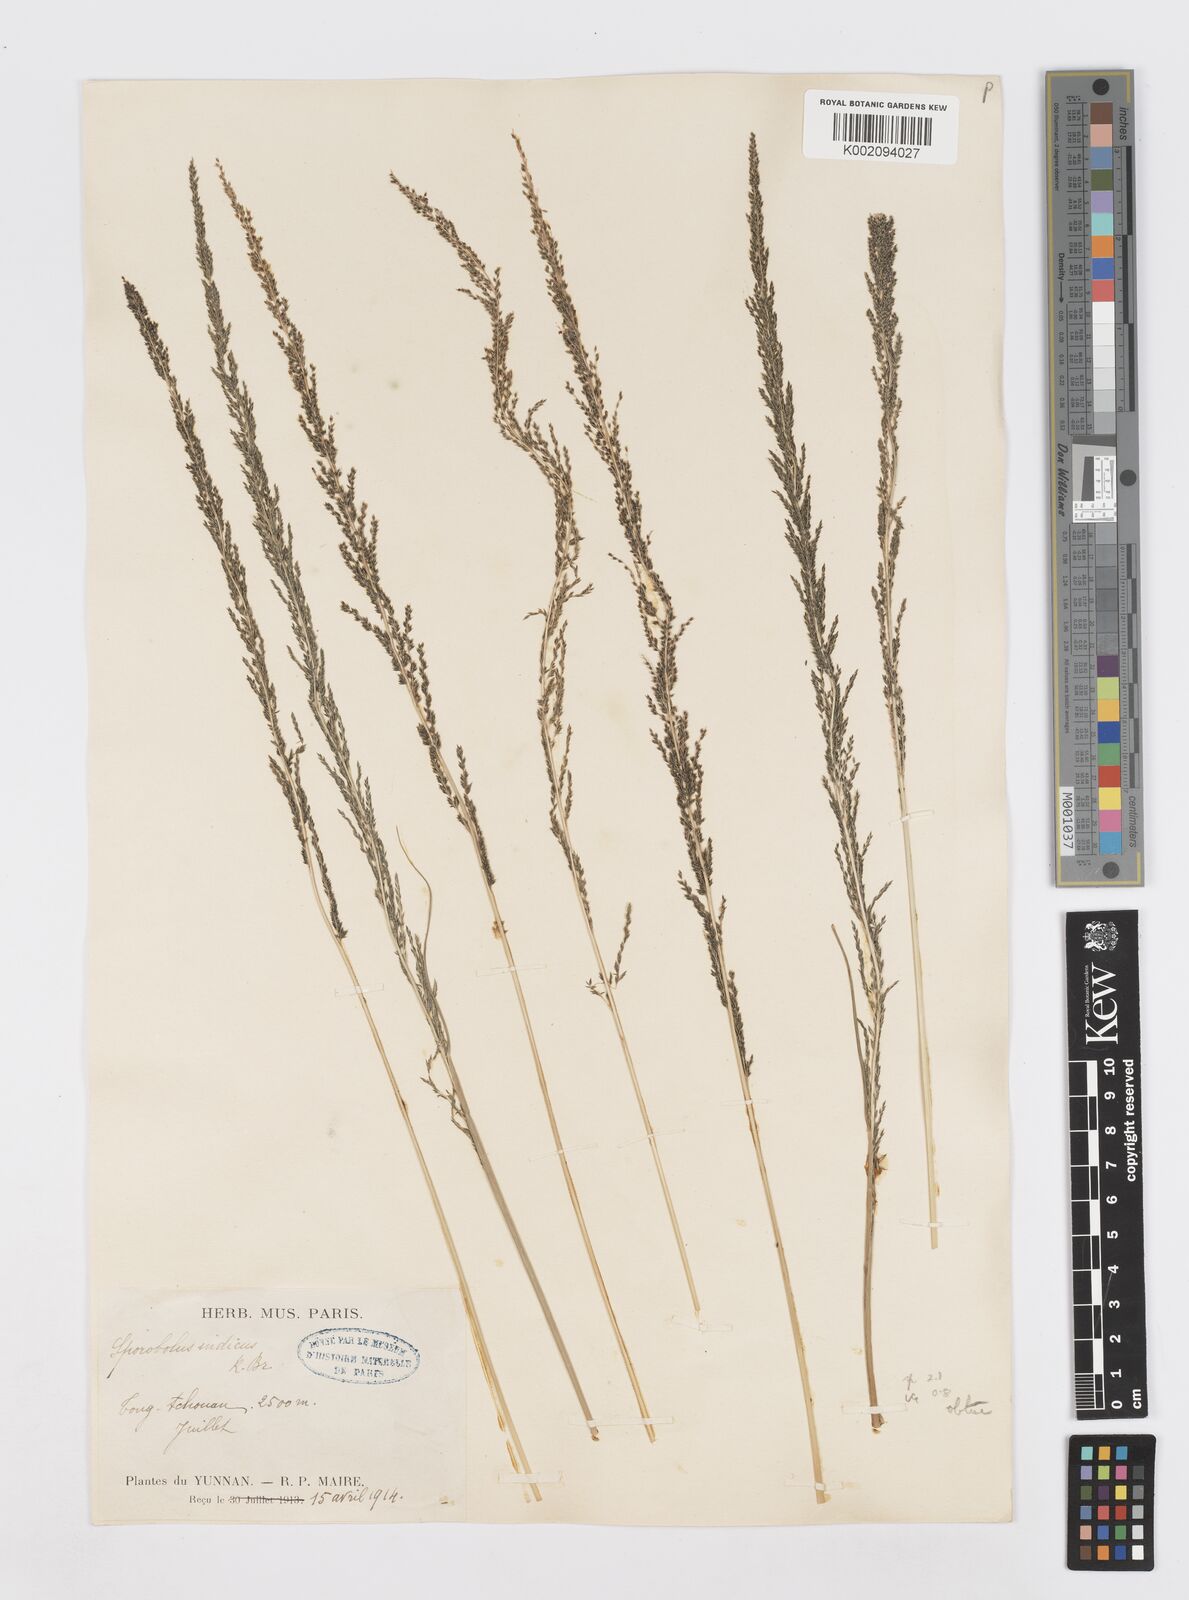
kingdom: Plantae
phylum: Tracheophyta
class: Liliopsida
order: Poales
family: Poaceae
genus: Sporobolus
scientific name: Sporobolus fertilis
